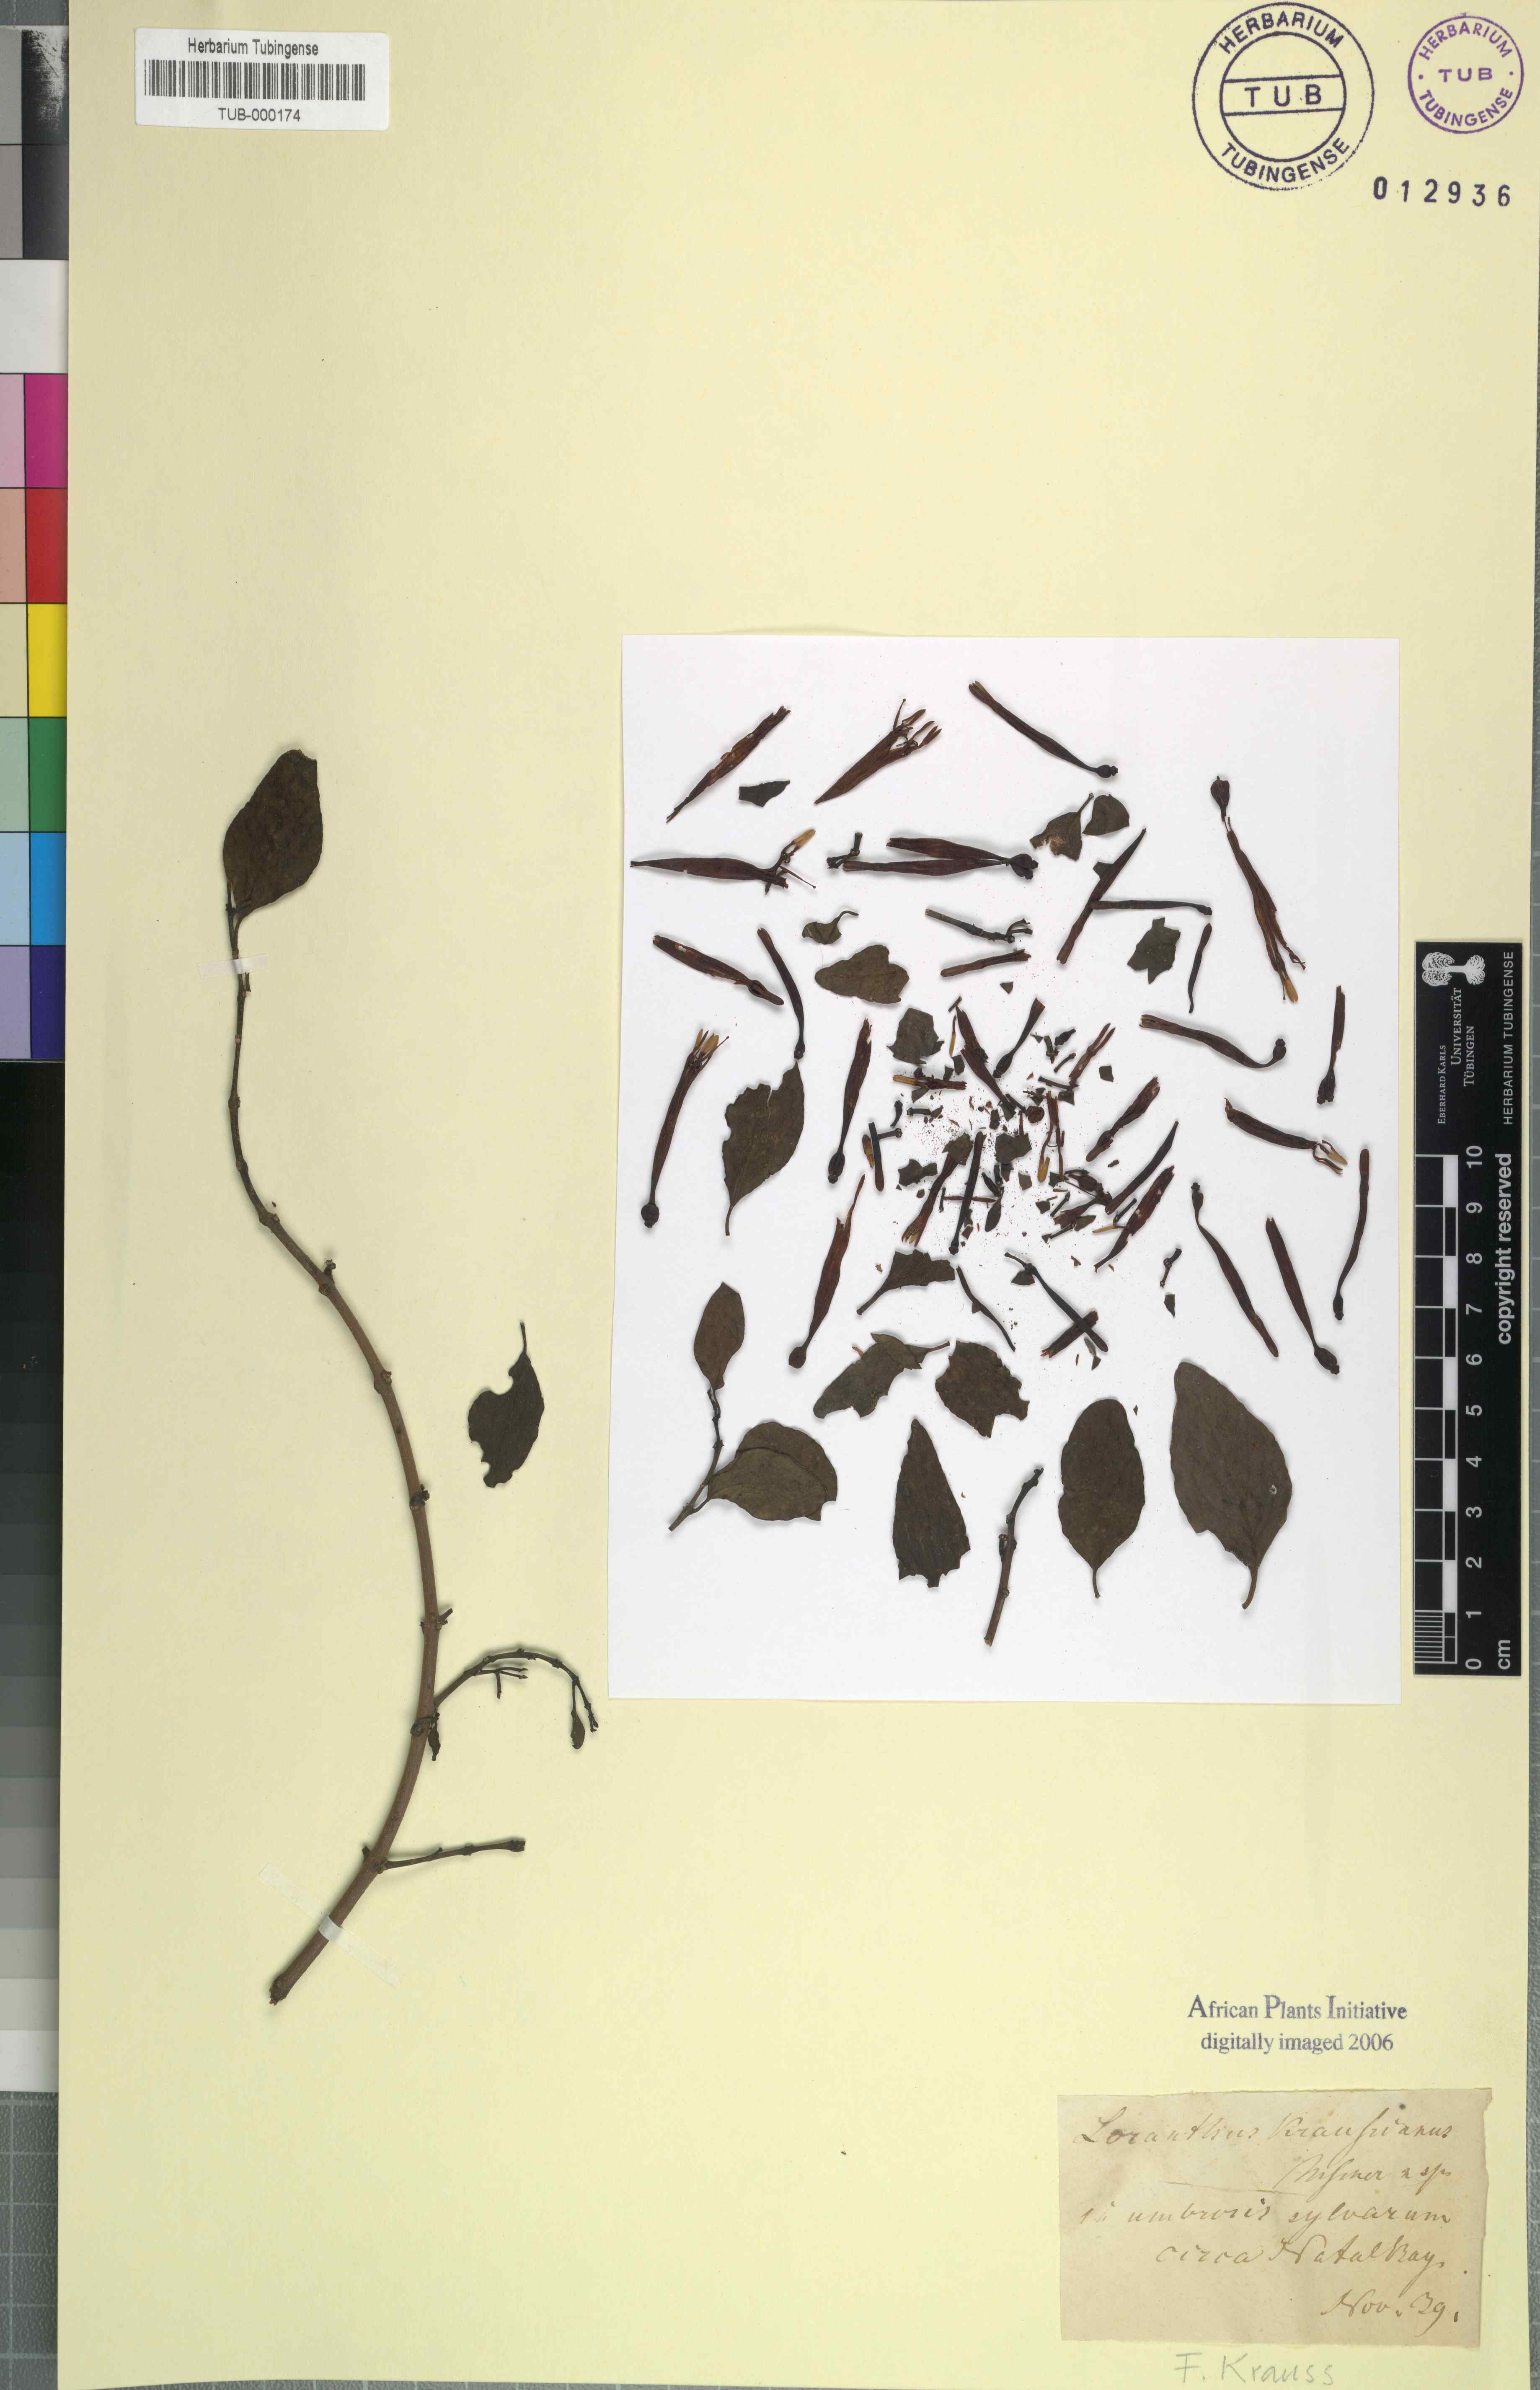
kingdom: Plantae
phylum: Tracheophyta
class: Magnoliopsida
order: Santalales
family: Loranthaceae
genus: Agelanthus
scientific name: Agelanthus kraussianus
